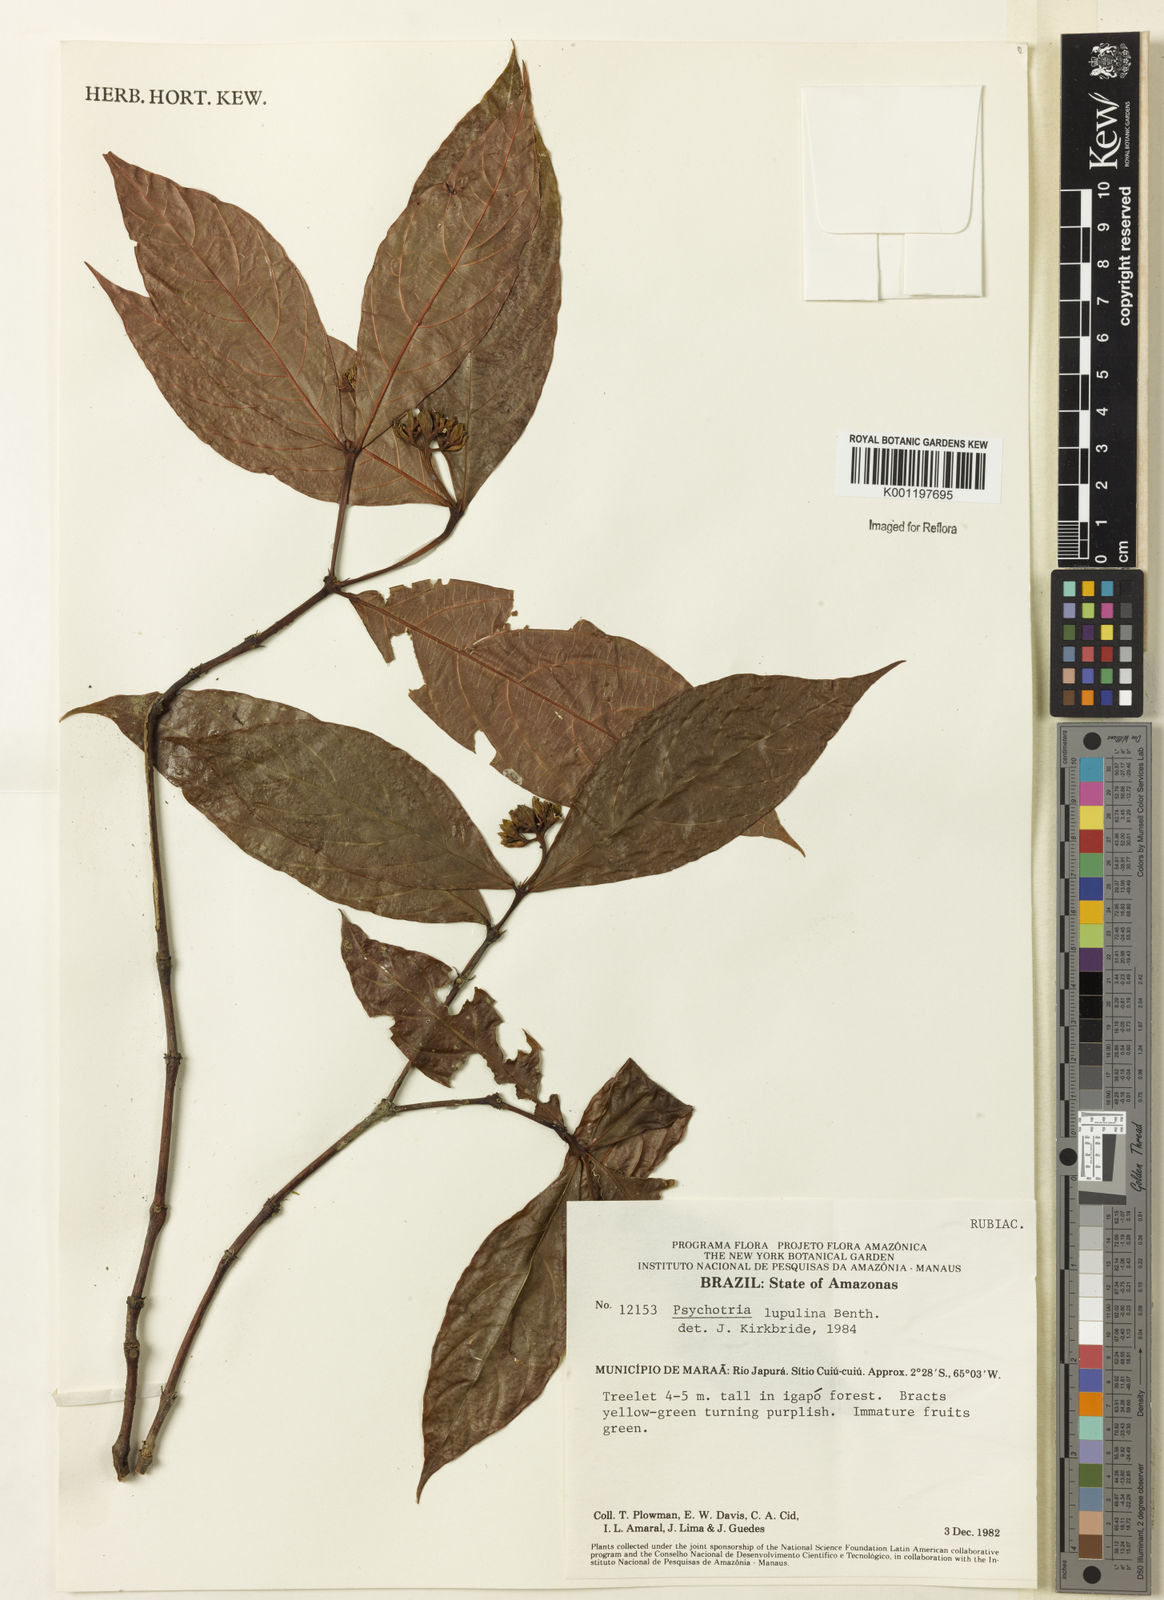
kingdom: Plantae
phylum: Tracheophyta
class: Magnoliopsida
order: Gentianales
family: Rubiaceae
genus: Palicourea
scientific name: Palicourea justiciifolia
